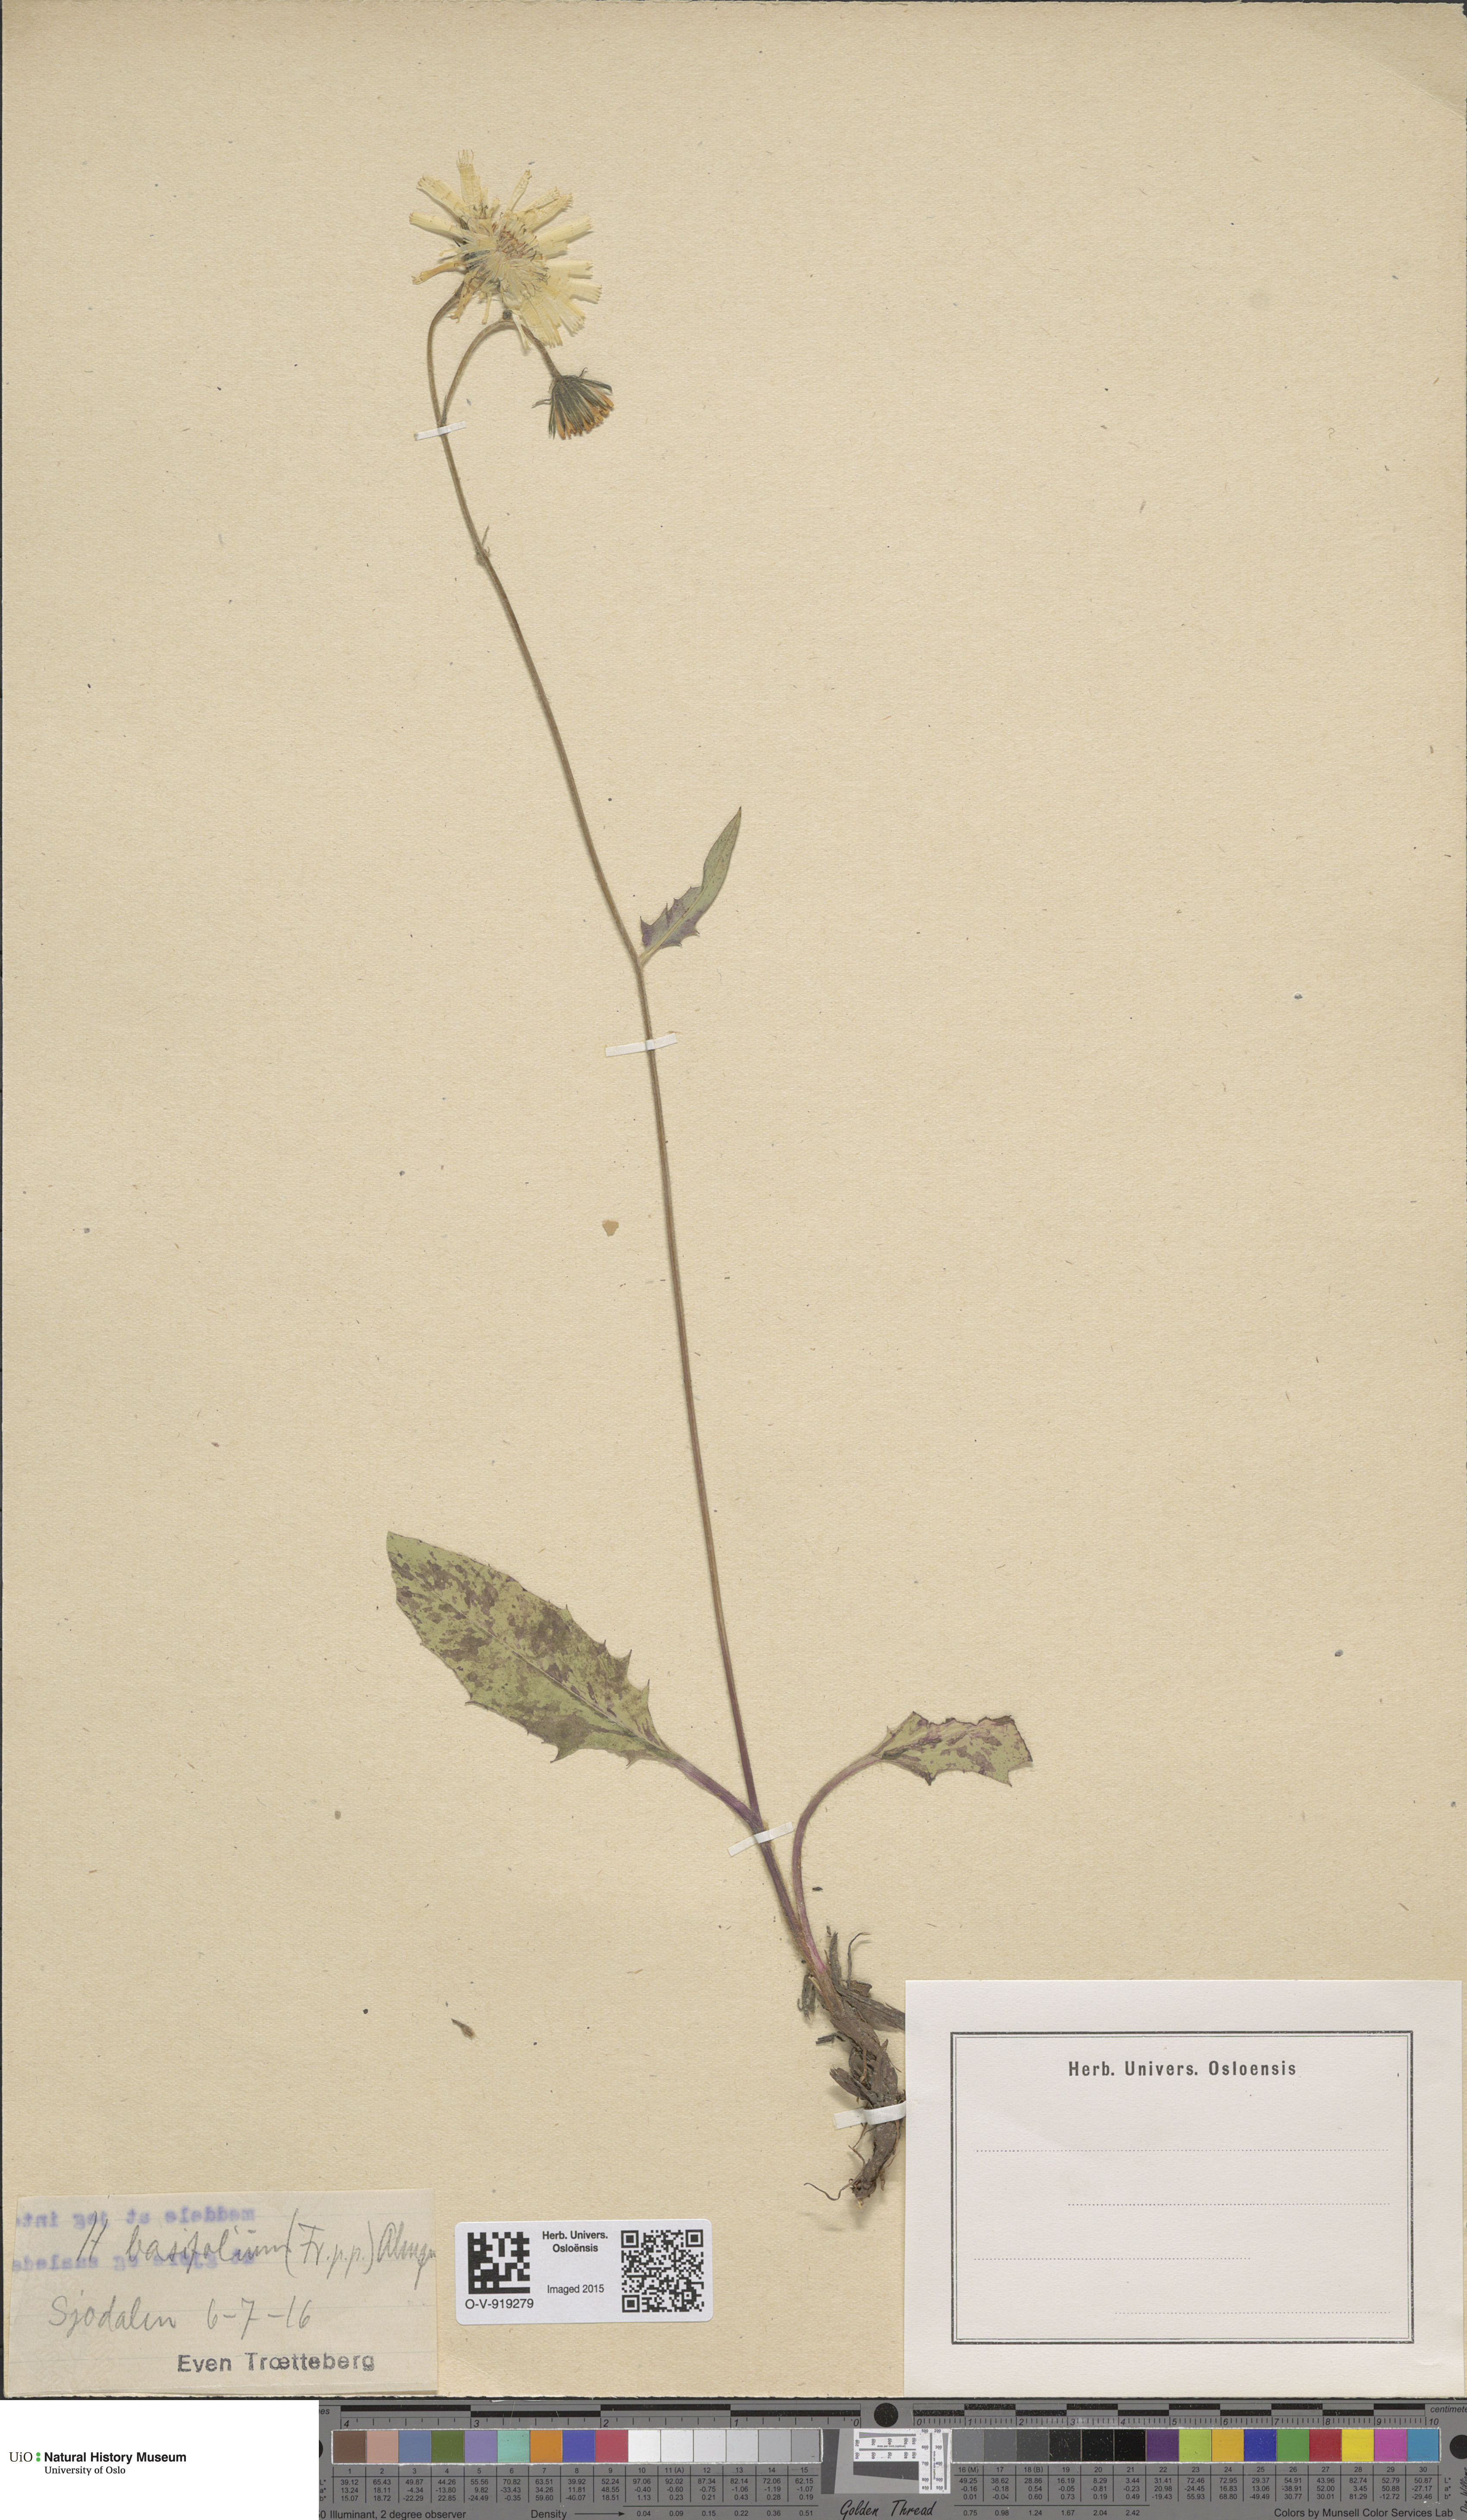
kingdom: Plantae
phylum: Tracheophyta
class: Magnoliopsida
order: Asterales
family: Asteraceae
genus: Hieracium
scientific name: Hieracium basifolium
